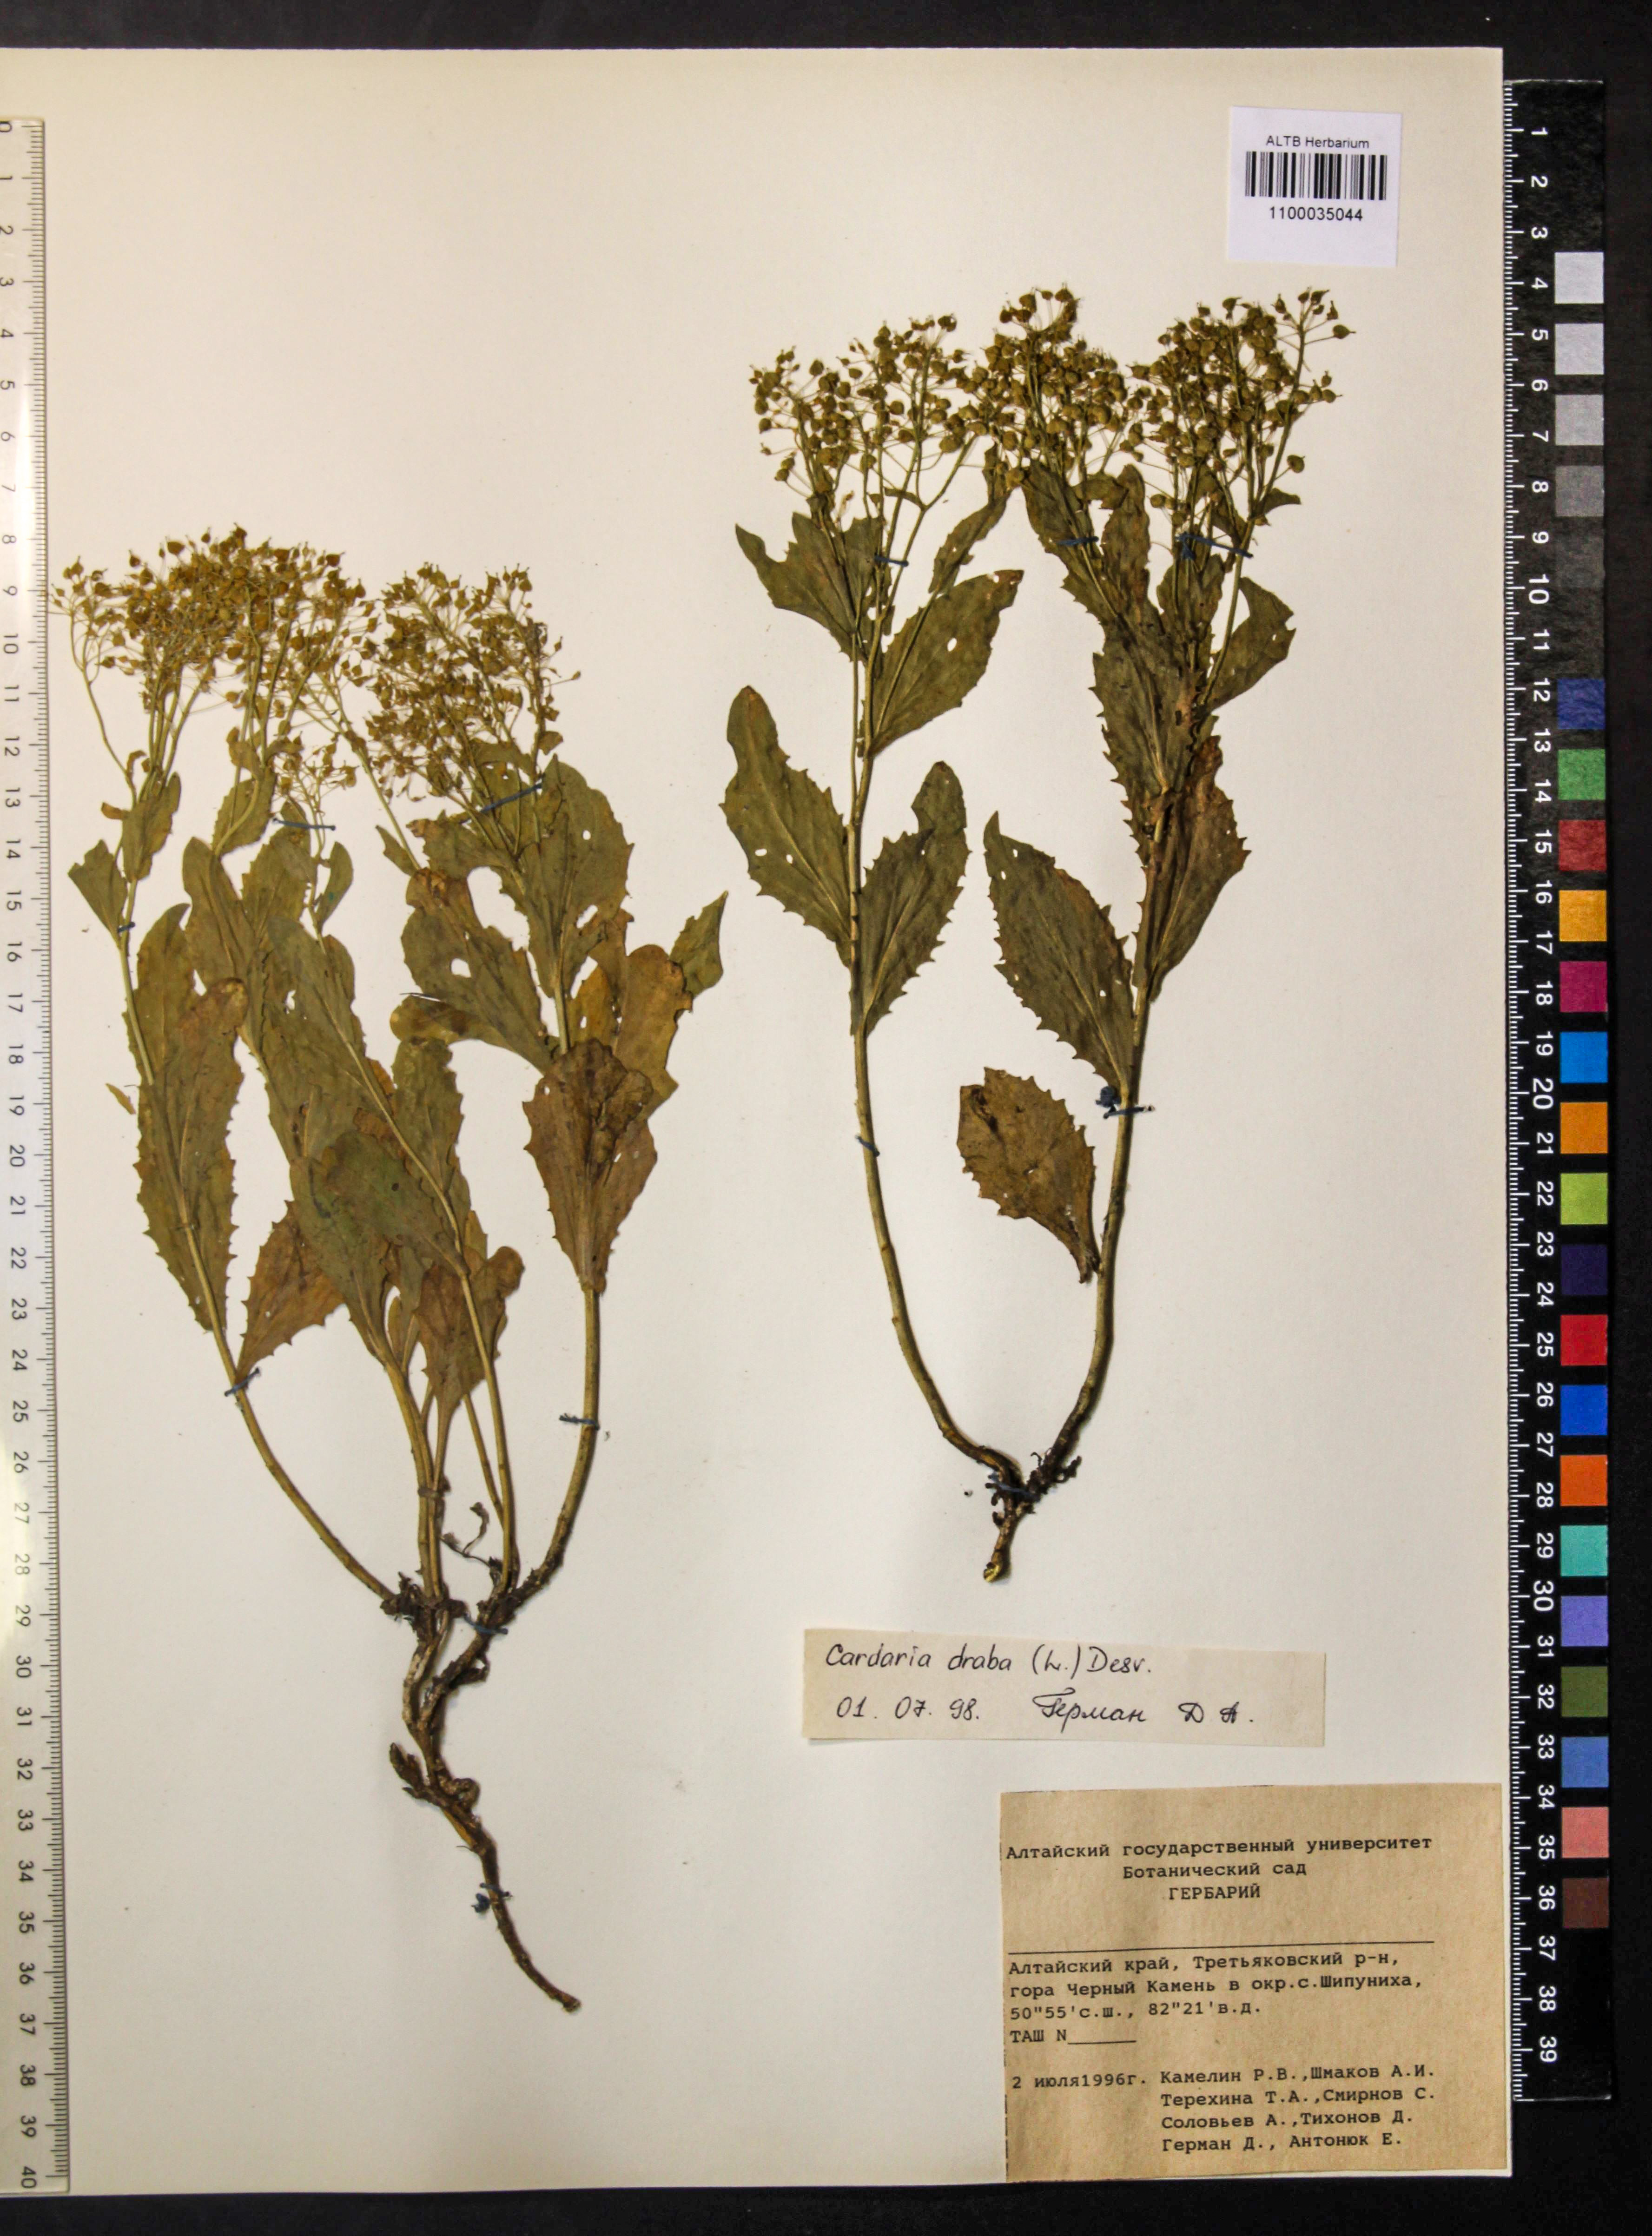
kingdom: Plantae
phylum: Tracheophyta
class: Magnoliopsida
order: Brassicales
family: Brassicaceae
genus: Lepidium
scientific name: Lepidium draba
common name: Hoary cress
